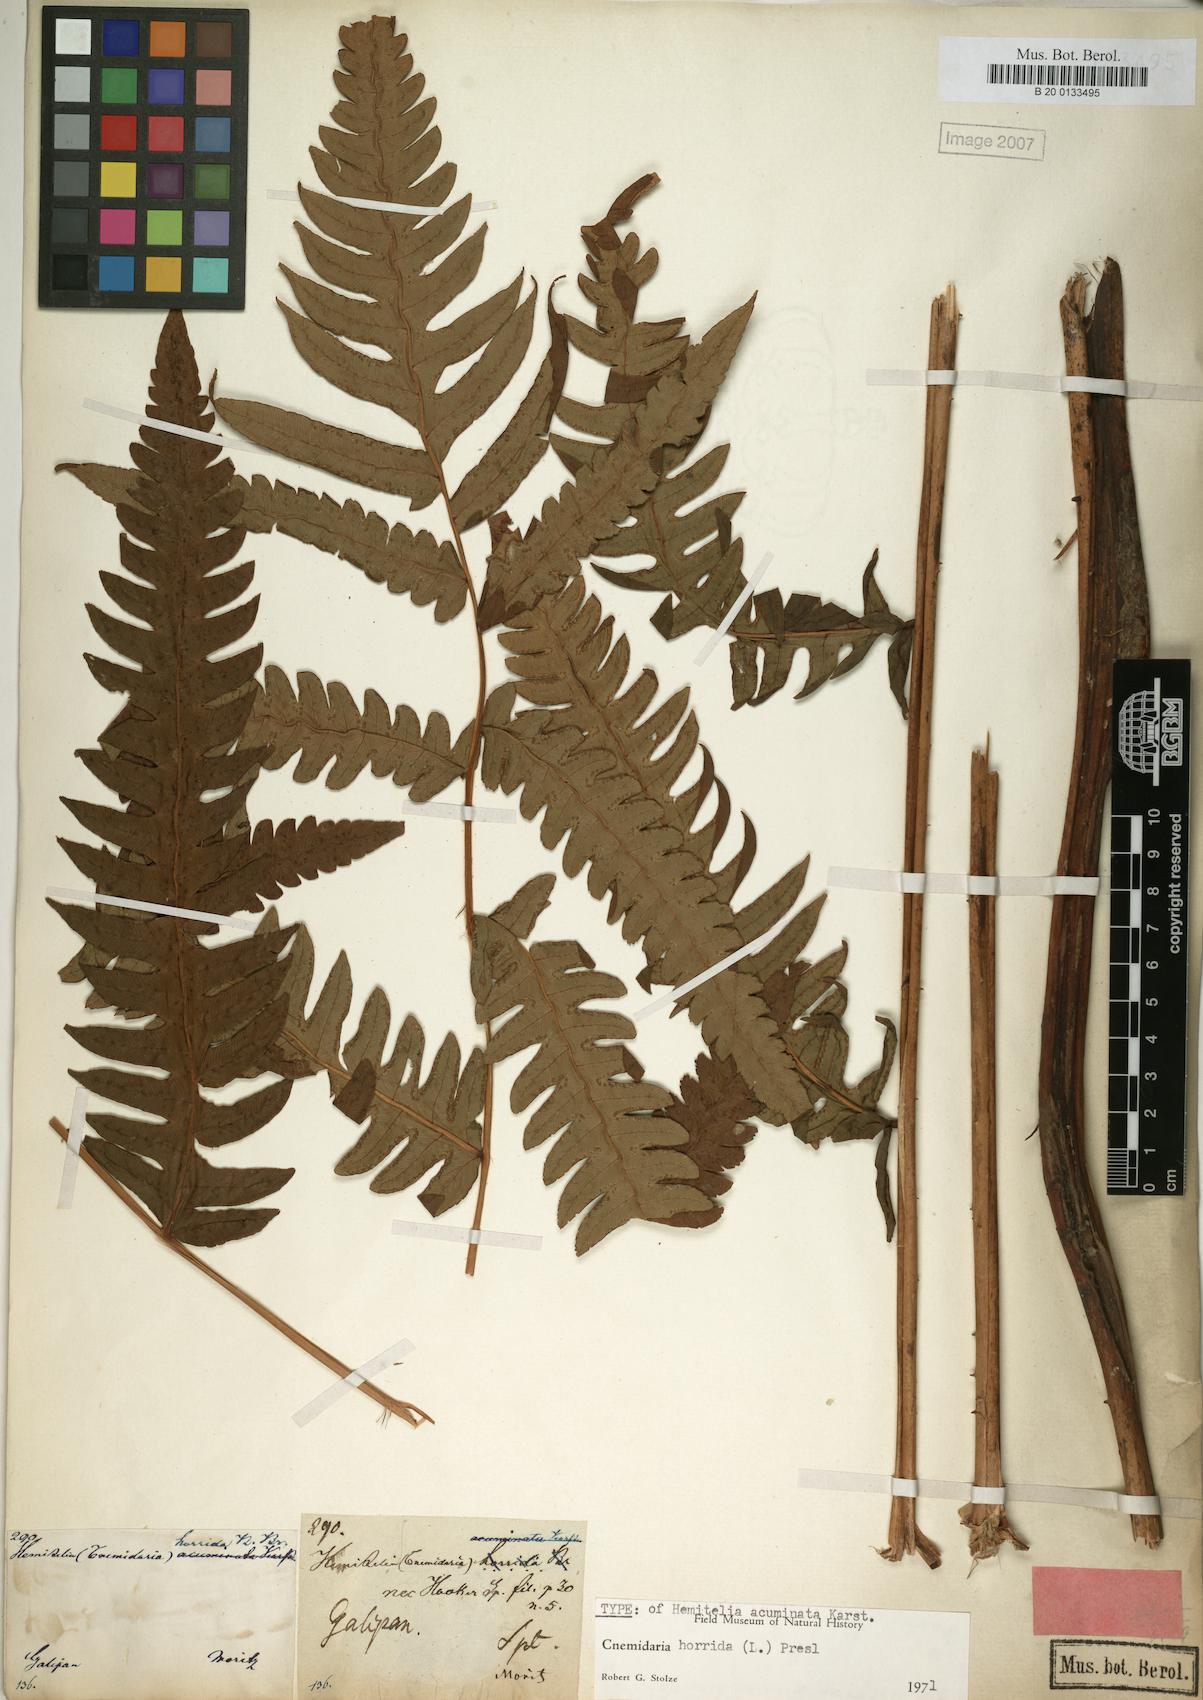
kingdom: Plantae
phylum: Tracheophyta
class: Polypodiopsida
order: Cyatheales
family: Cyatheaceae
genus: Cyathea
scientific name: Cyathea horrida
